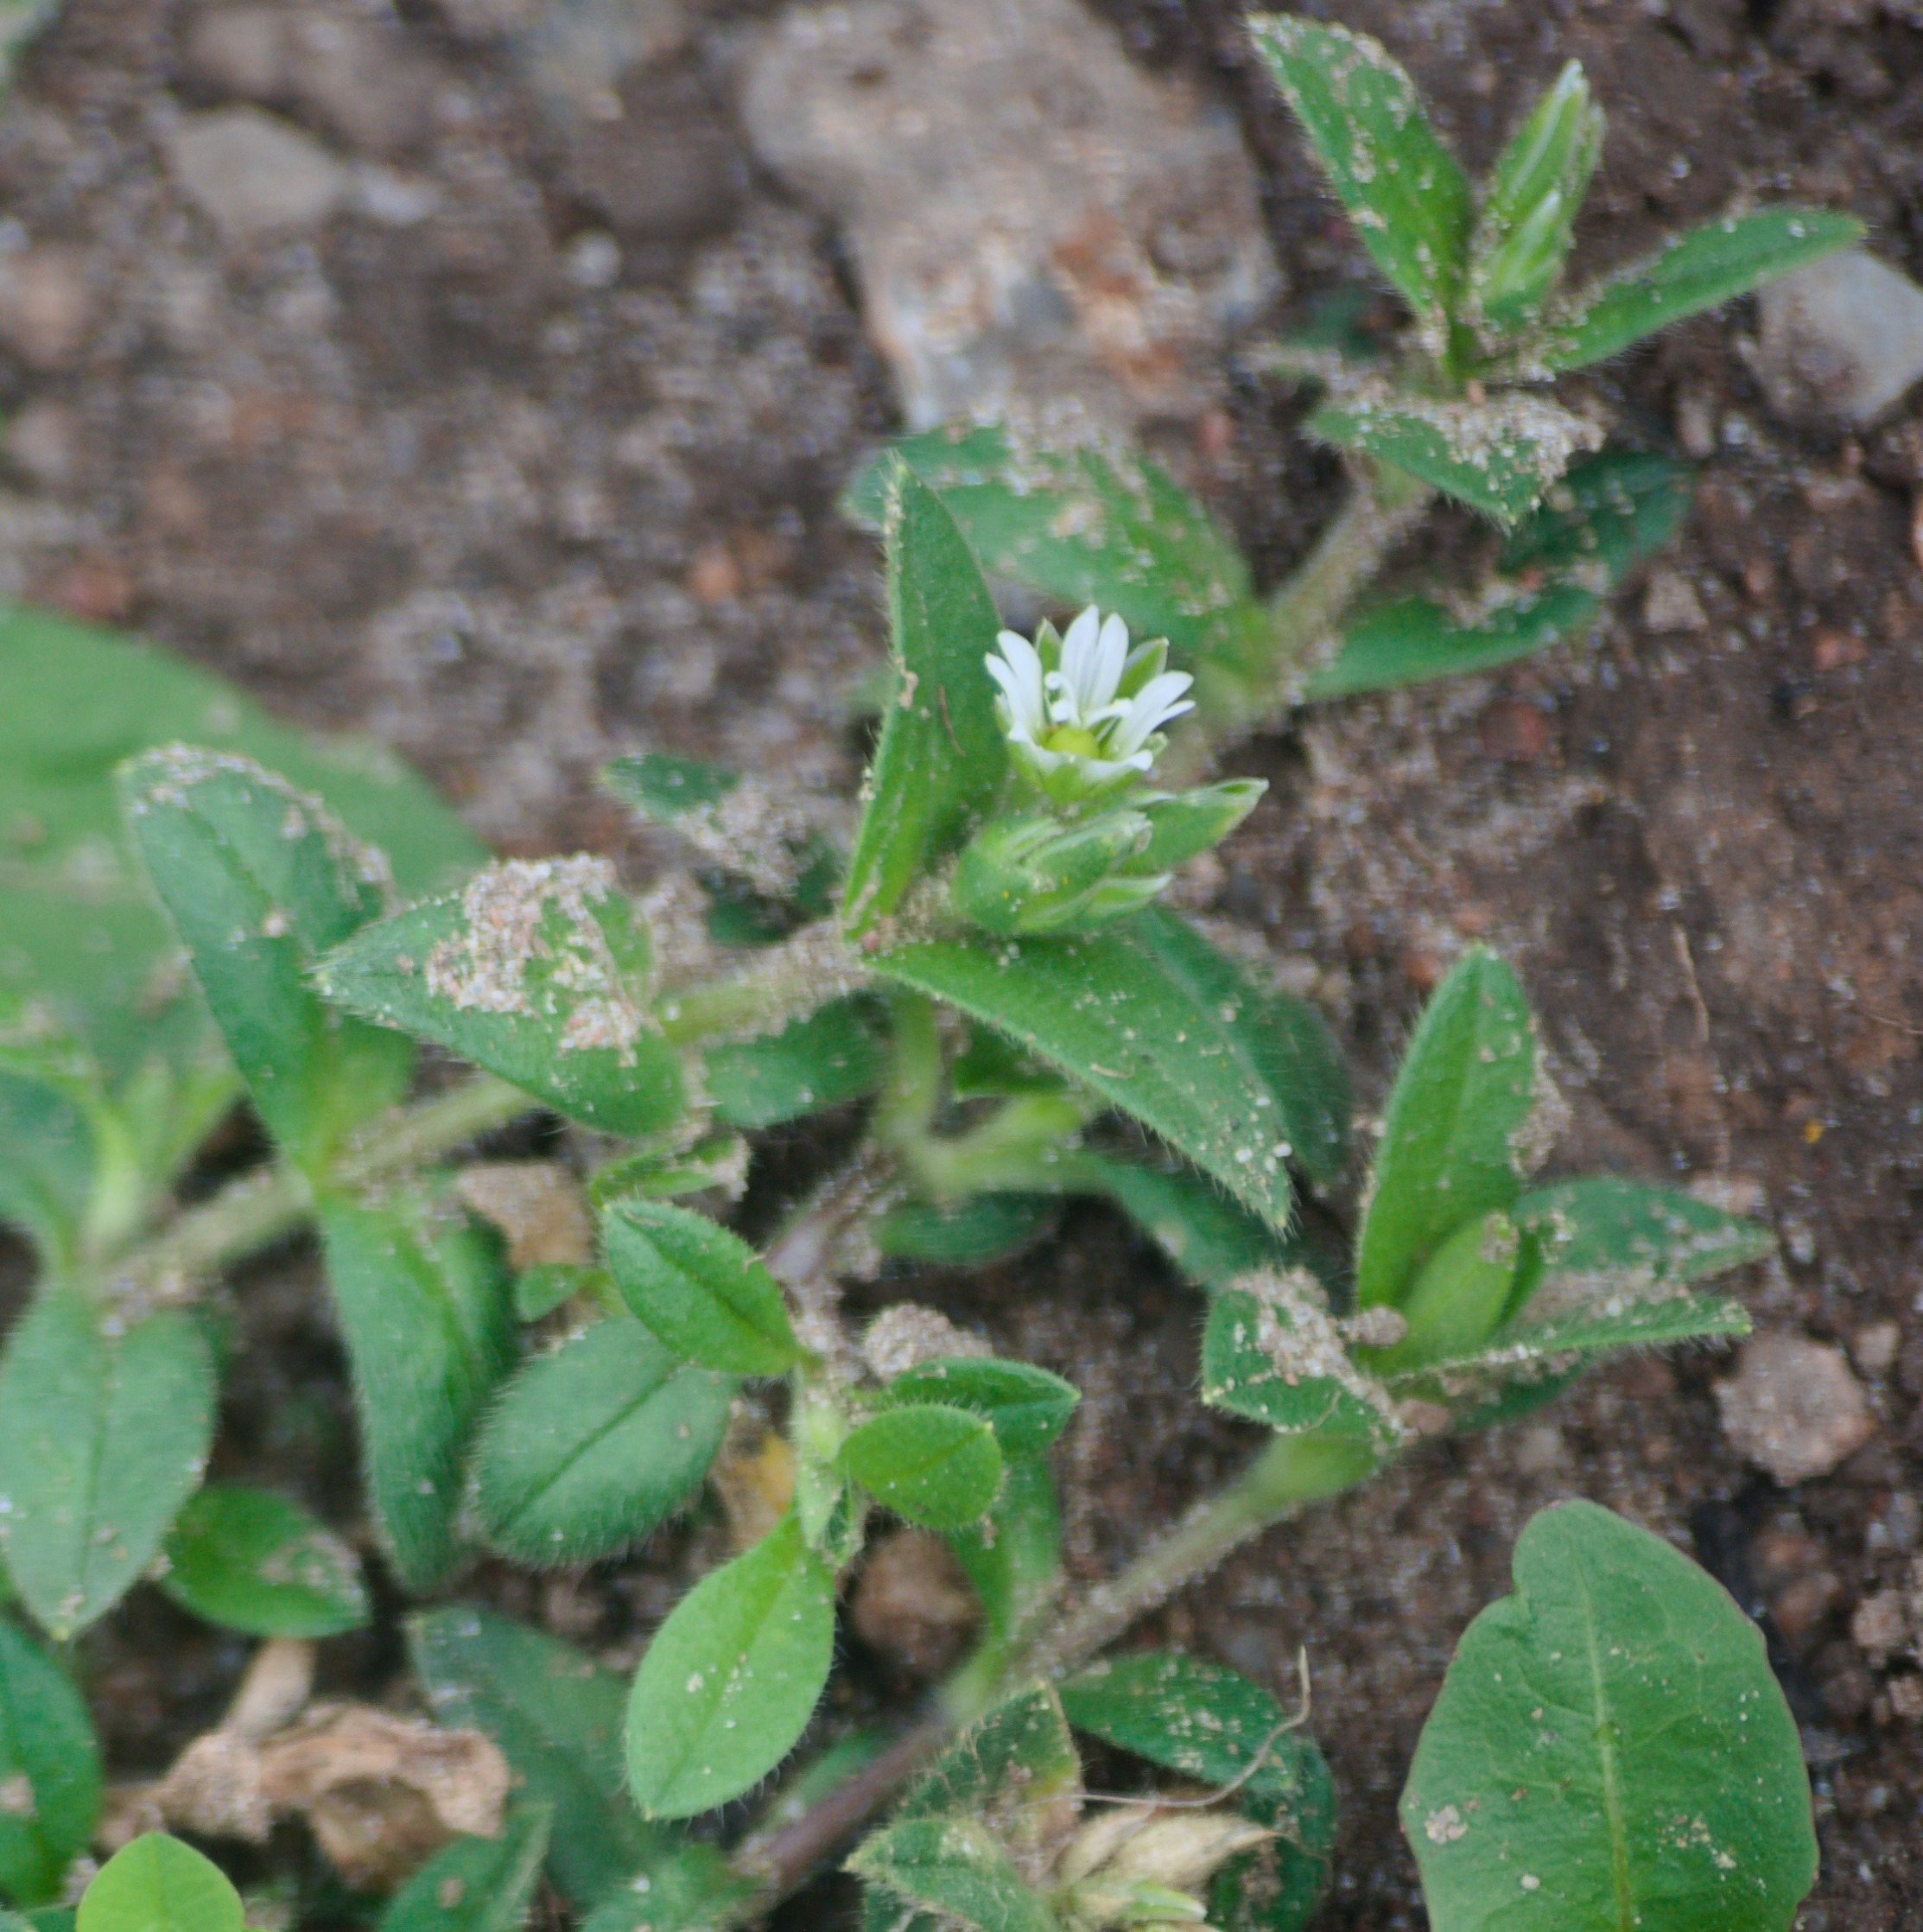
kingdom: Plantae
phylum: Tracheophyta
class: Magnoliopsida
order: Caryophyllales
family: Caryophyllaceae
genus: Cerastium
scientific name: Cerastium holosteoides
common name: Almindelig hønsetarm (varietet)
